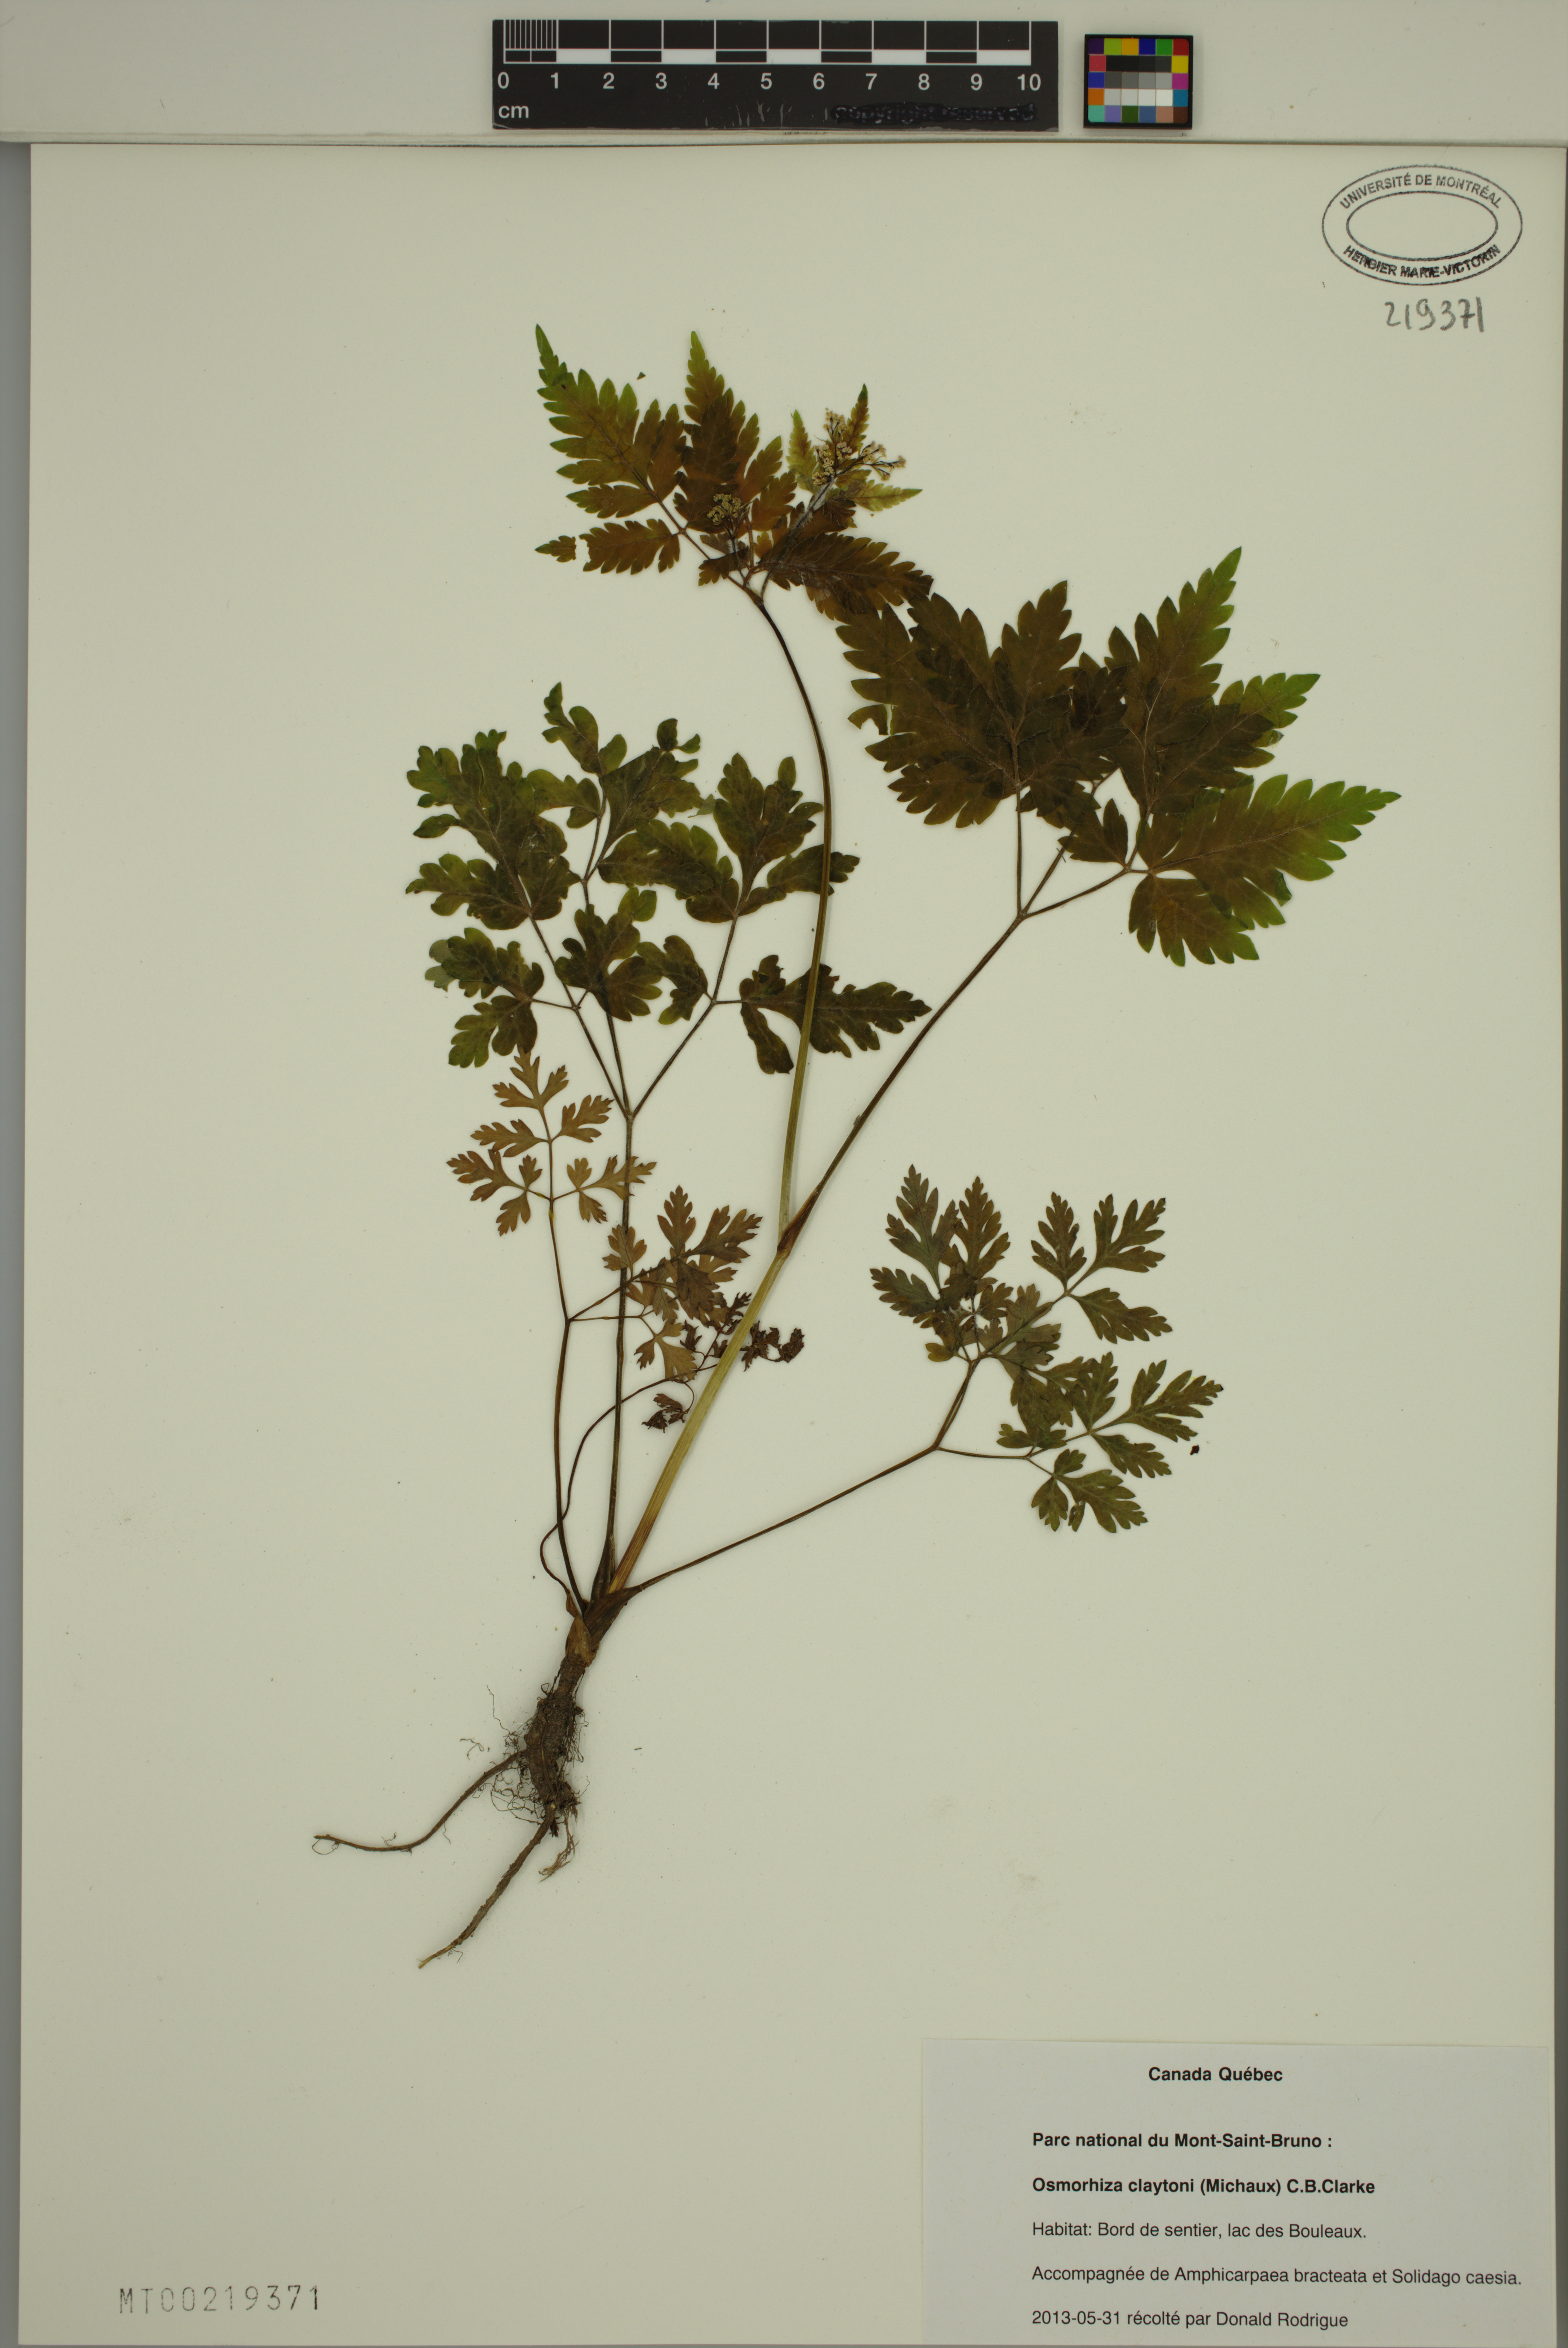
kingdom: Plantae
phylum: Tracheophyta
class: Magnoliopsida
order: Apiales
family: Apiaceae
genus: Osmorhiza
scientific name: Osmorhiza claytonii
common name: Hairy sweet cicely
